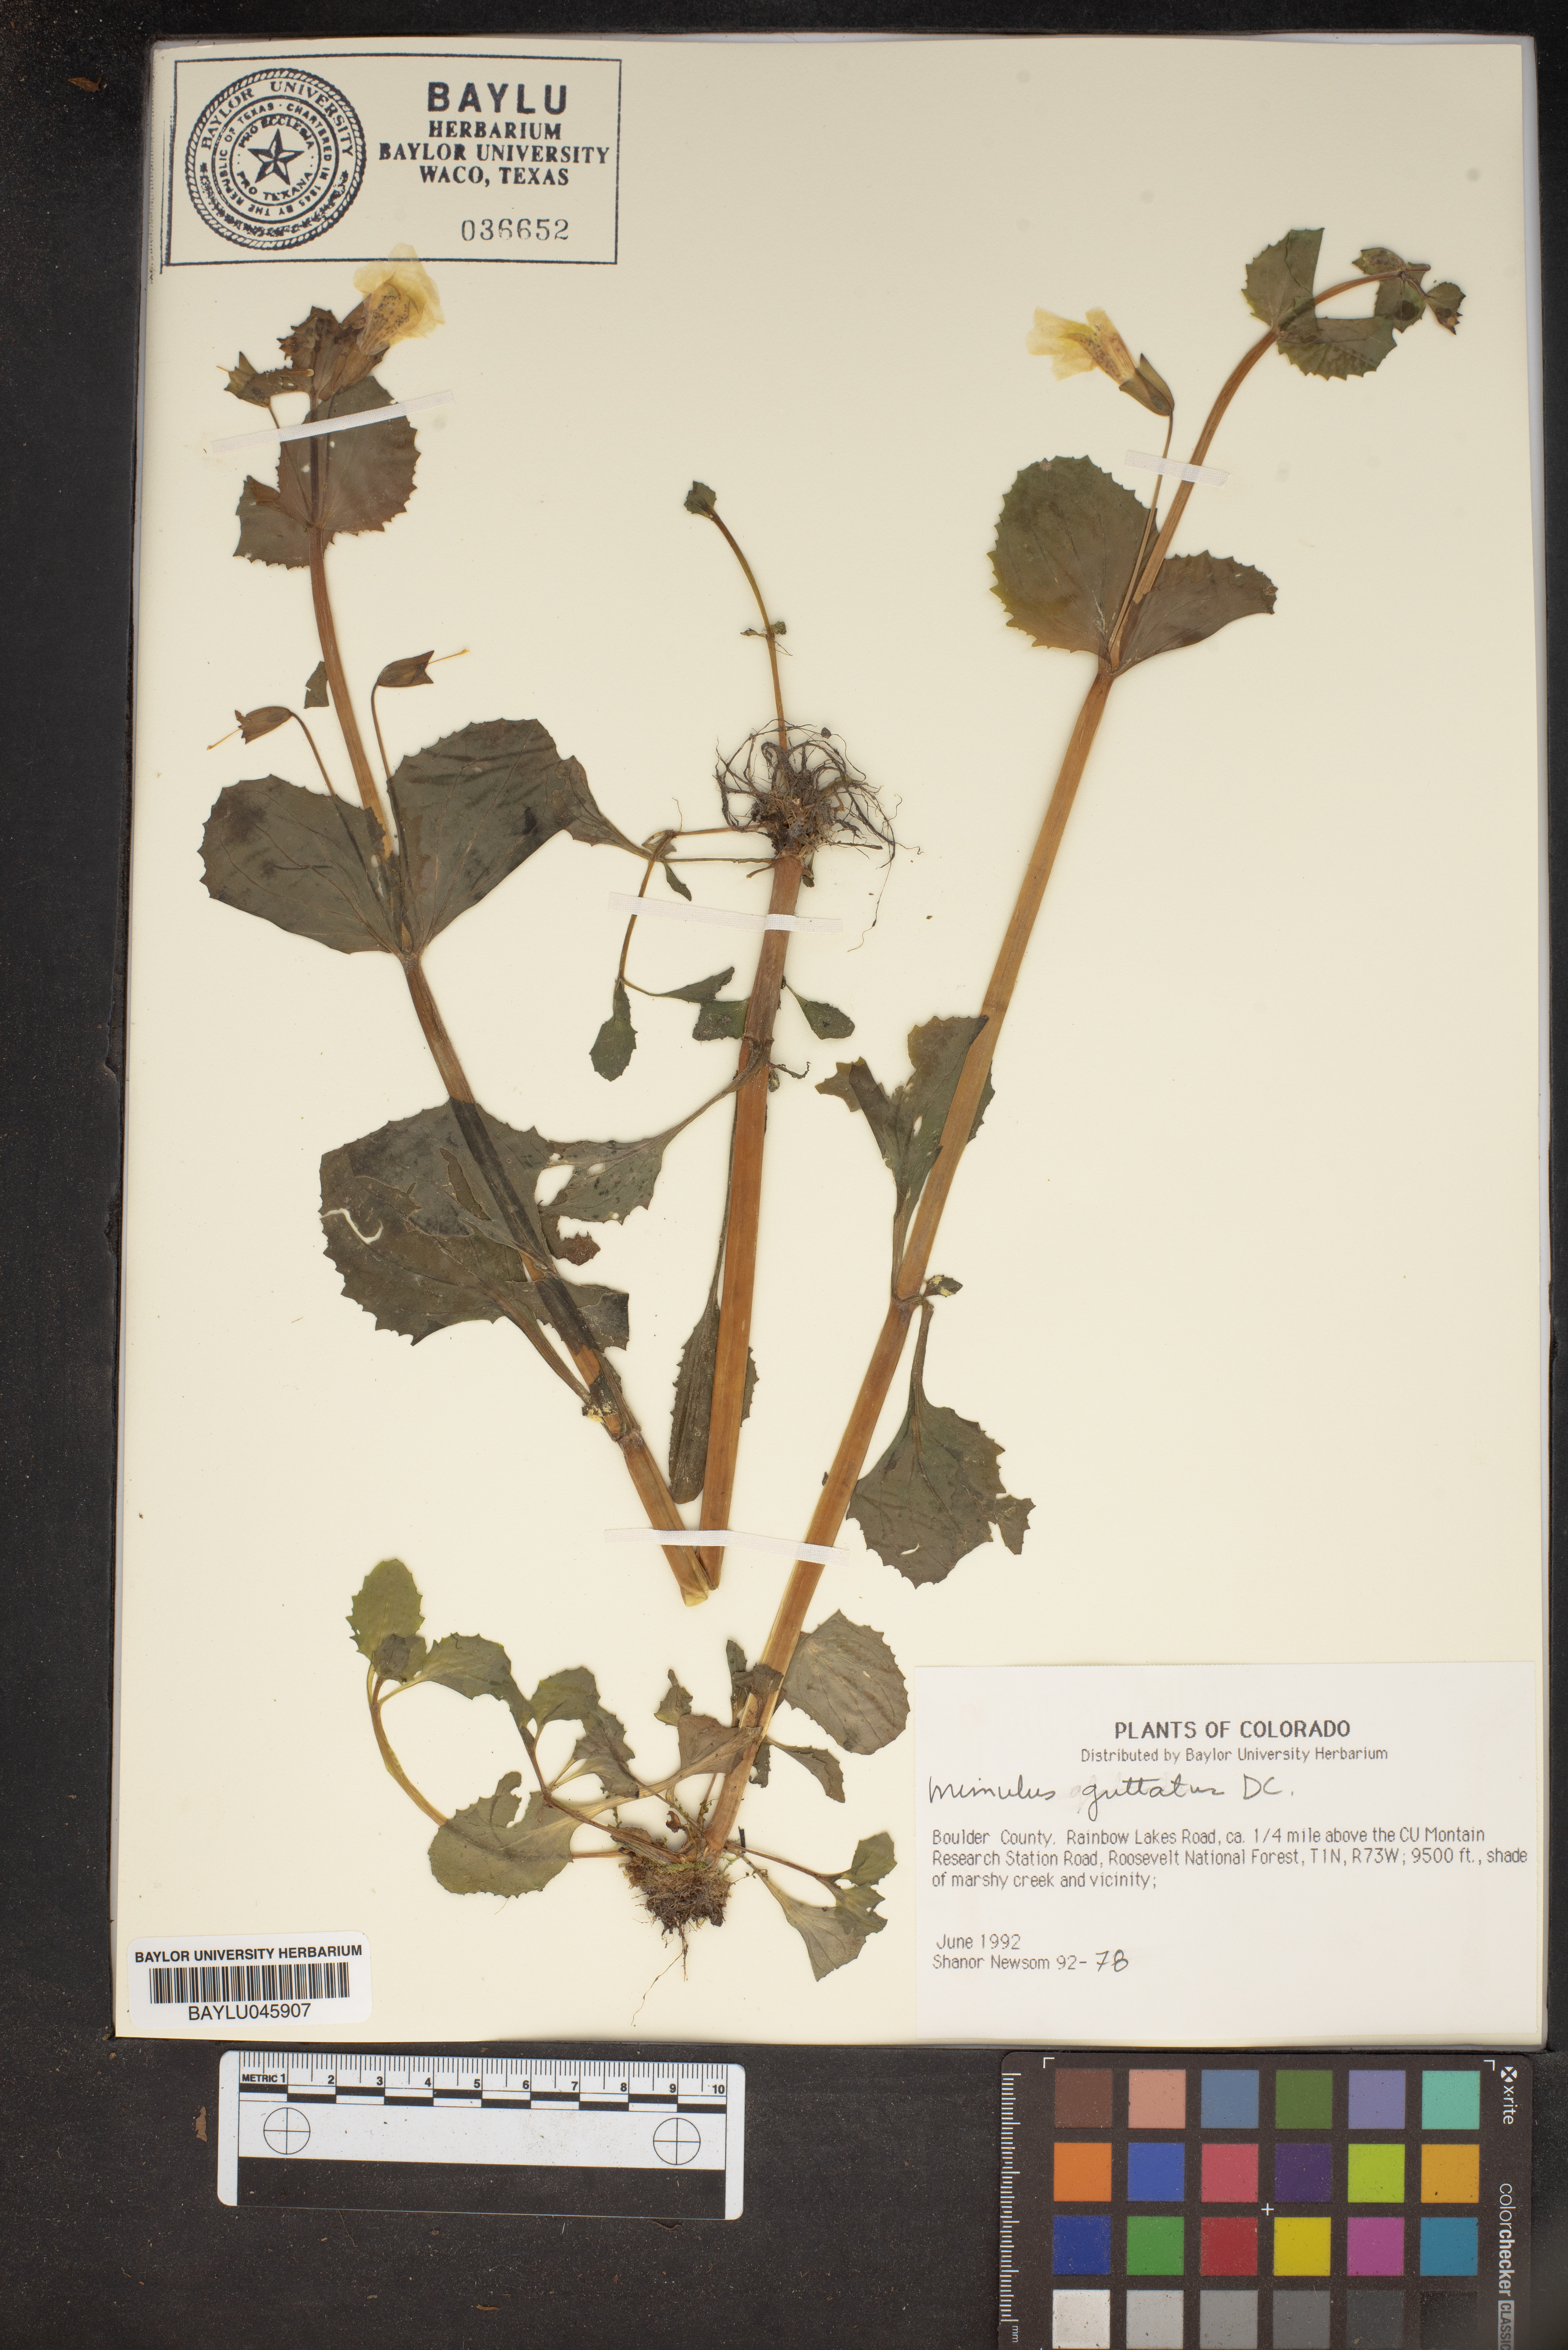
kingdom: Plantae
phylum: Tracheophyta
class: Magnoliopsida
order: Lamiales
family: Phrymaceae
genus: Erythranthe
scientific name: Erythranthe guttata
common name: Monkeyflower
